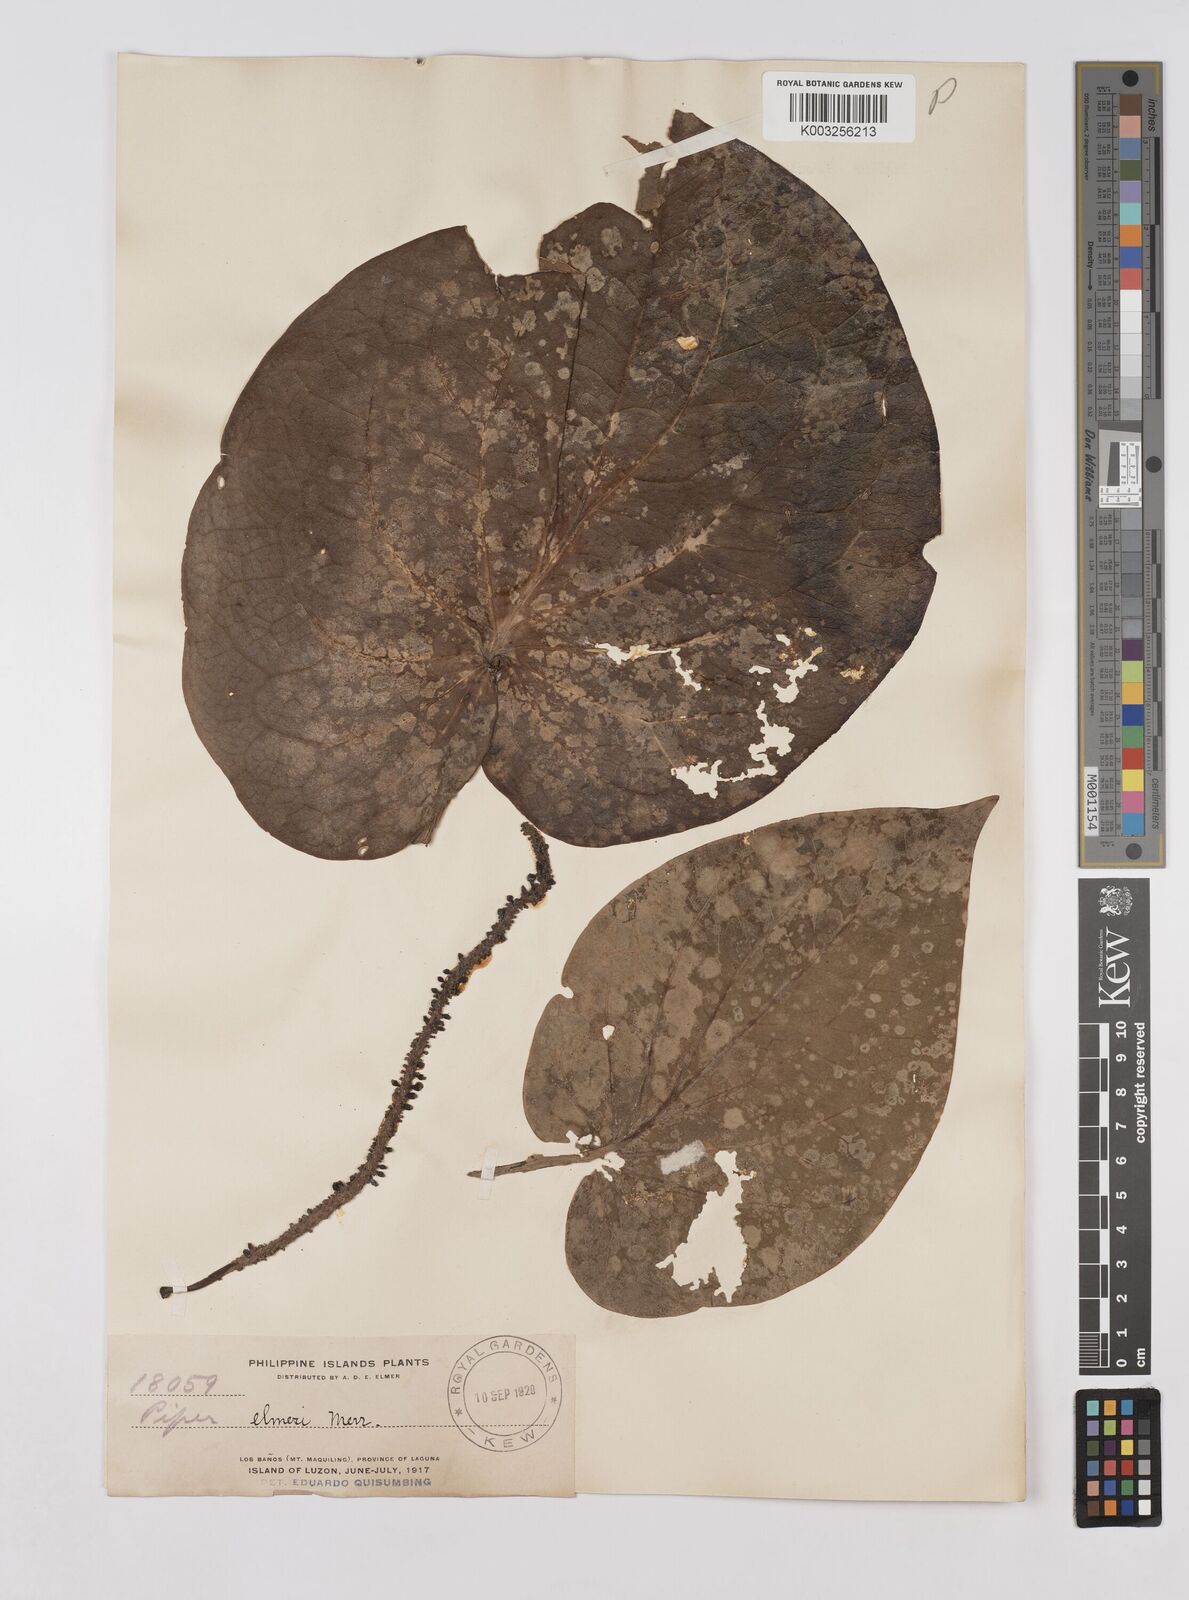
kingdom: Plantae
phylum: Tracheophyta
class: Magnoliopsida
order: Piperales
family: Piperaceae
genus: Piper
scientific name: Piper elmeri
